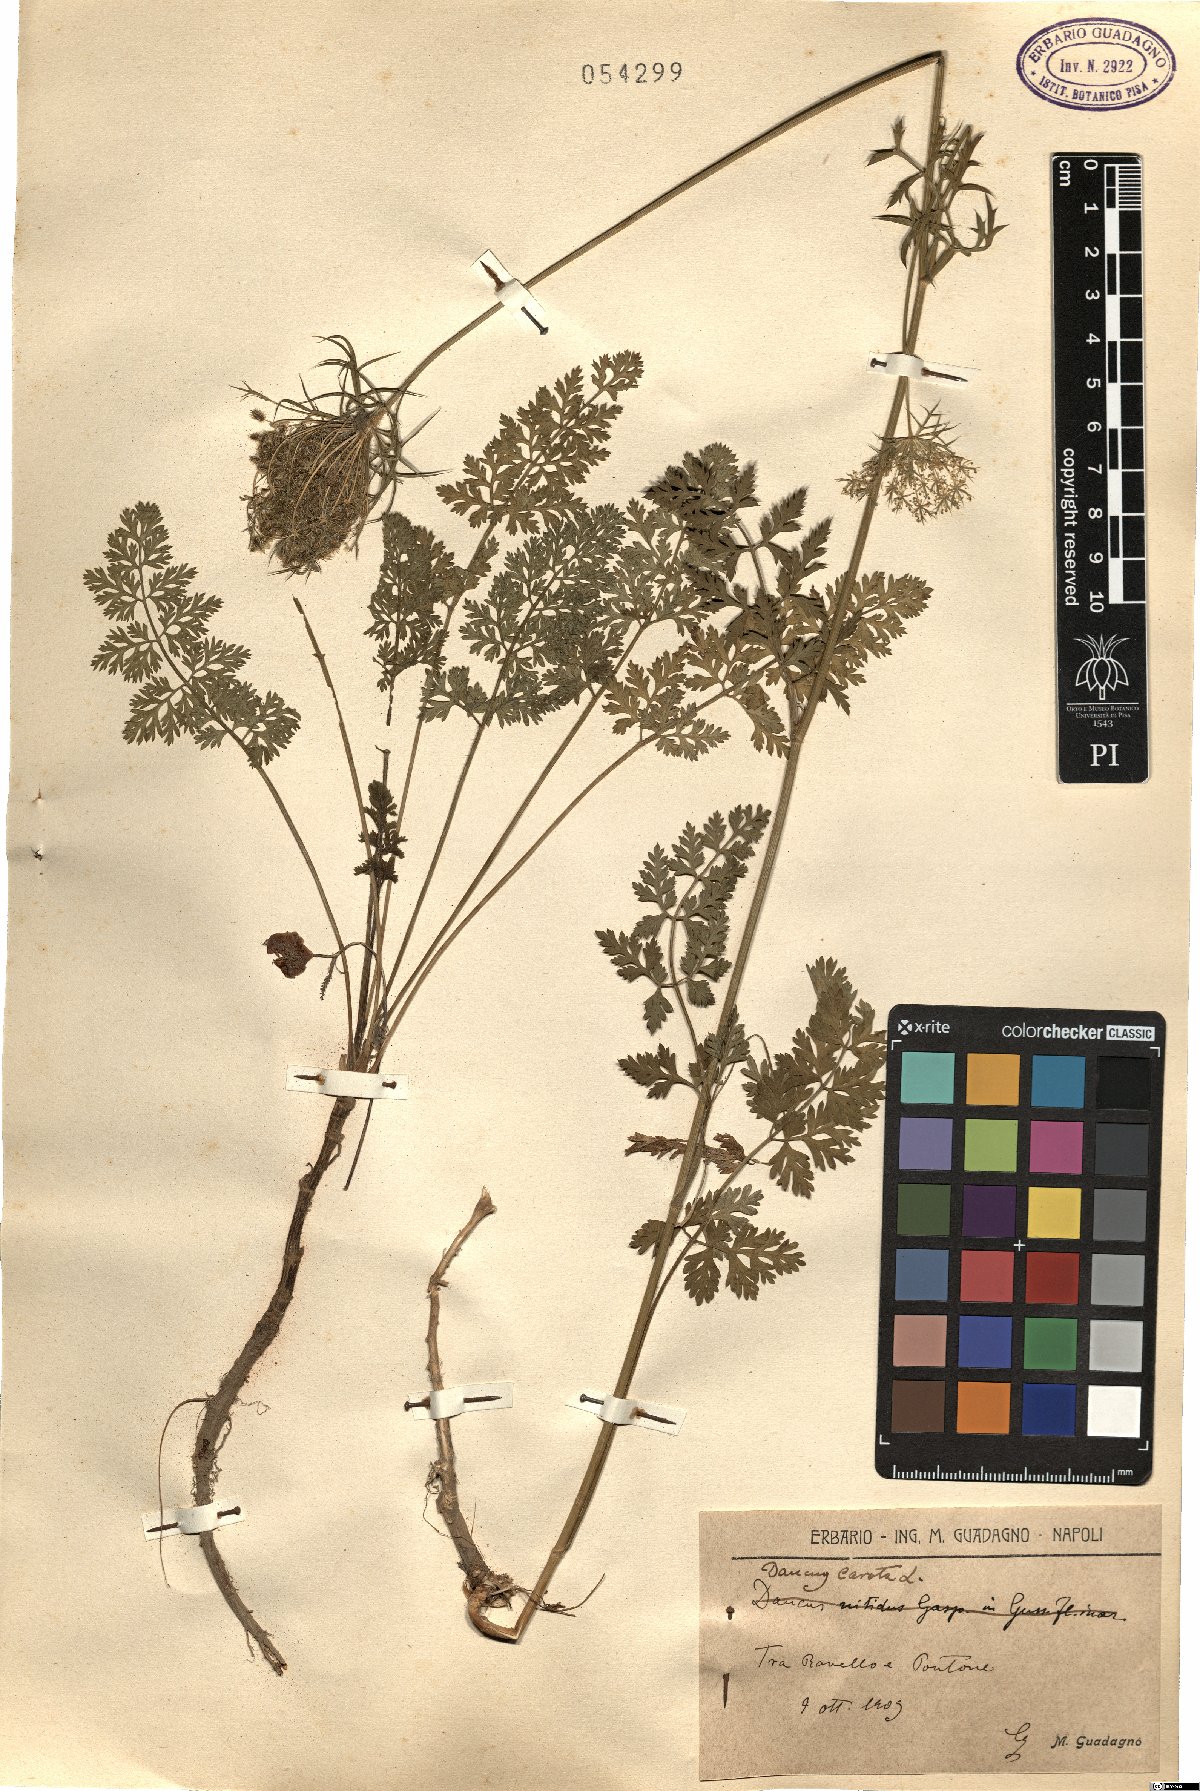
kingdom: Plantae
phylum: Tracheophyta
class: Magnoliopsida
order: Apiales
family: Apiaceae
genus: Daucus
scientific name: Daucus carota
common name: Wild carrot
